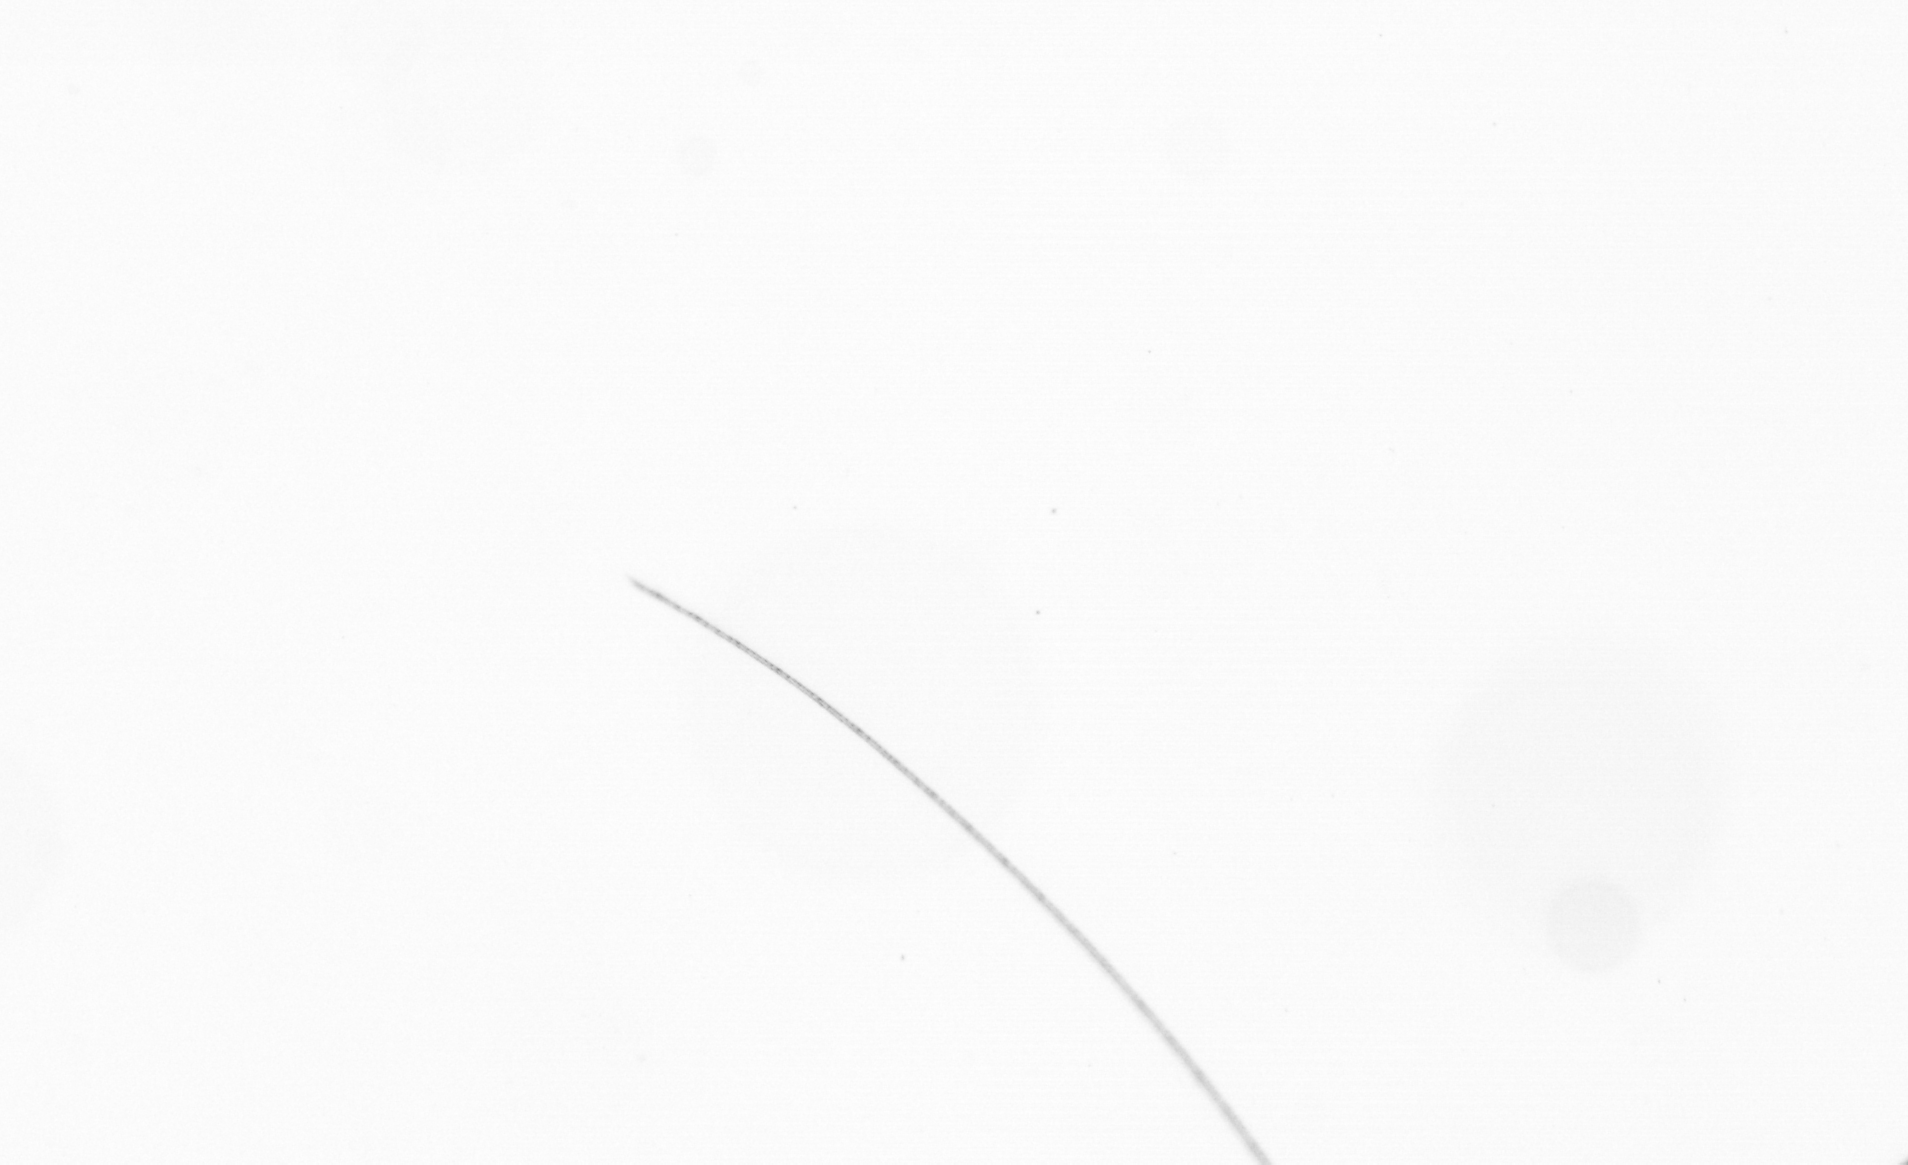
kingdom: Chromista
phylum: Ochrophyta
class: Bacillariophyceae
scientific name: Bacillariophyceae
